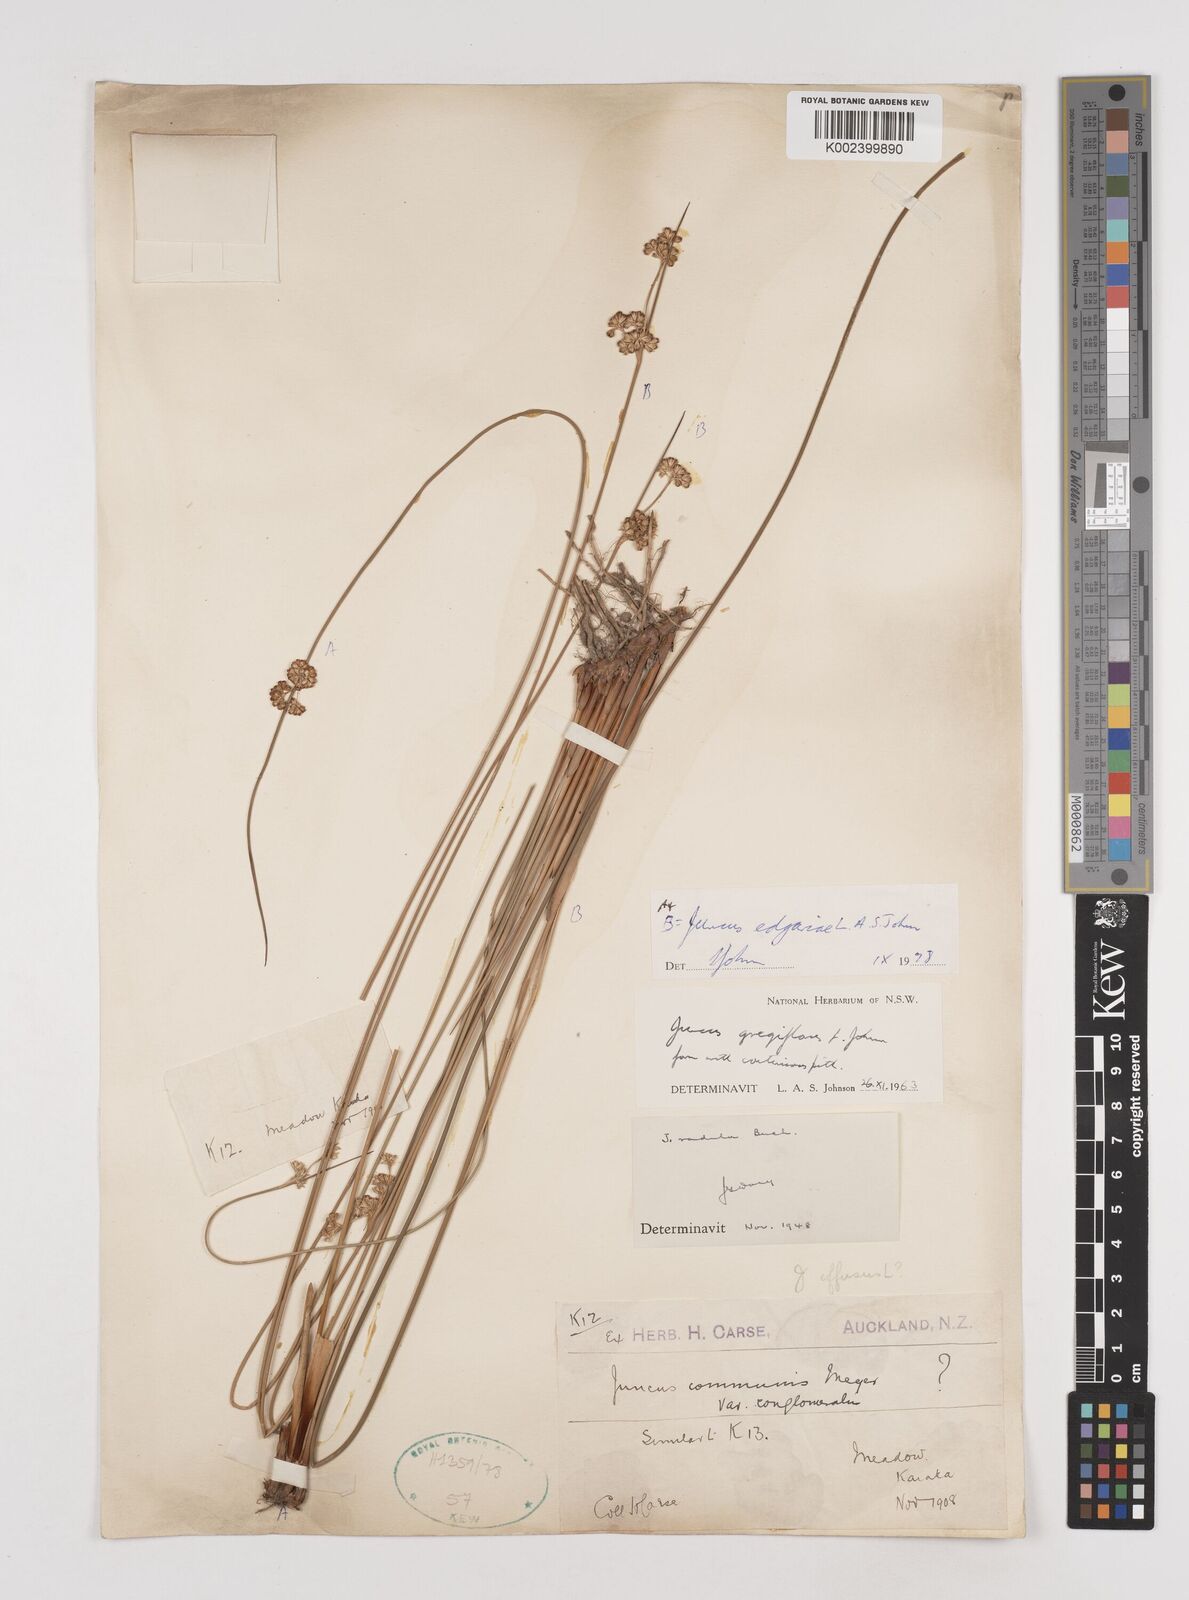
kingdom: Plantae
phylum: Tracheophyta
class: Liliopsida
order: Poales
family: Juncaceae
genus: Juncus
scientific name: Juncus edgariae
